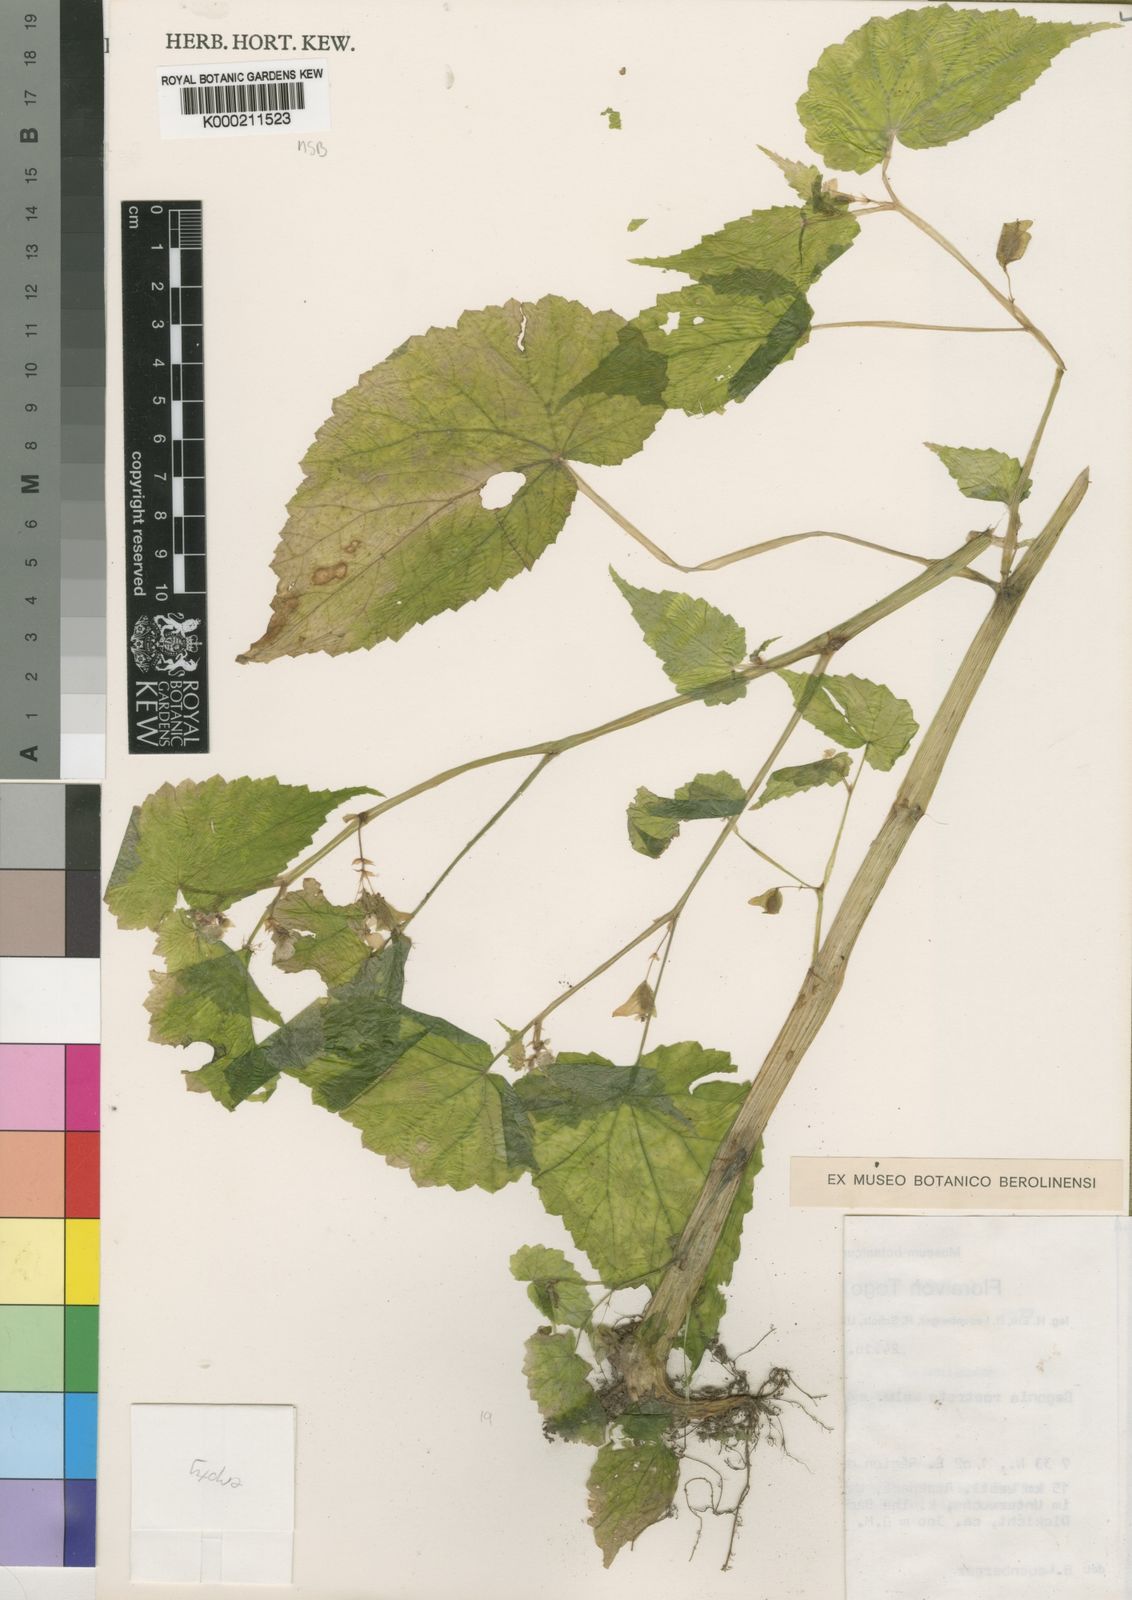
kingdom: Plantae
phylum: Tracheophyta
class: Magnoliopsida
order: Cucurbitales
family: Begoniaceae
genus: Begonia
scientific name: Begonia rostrata
